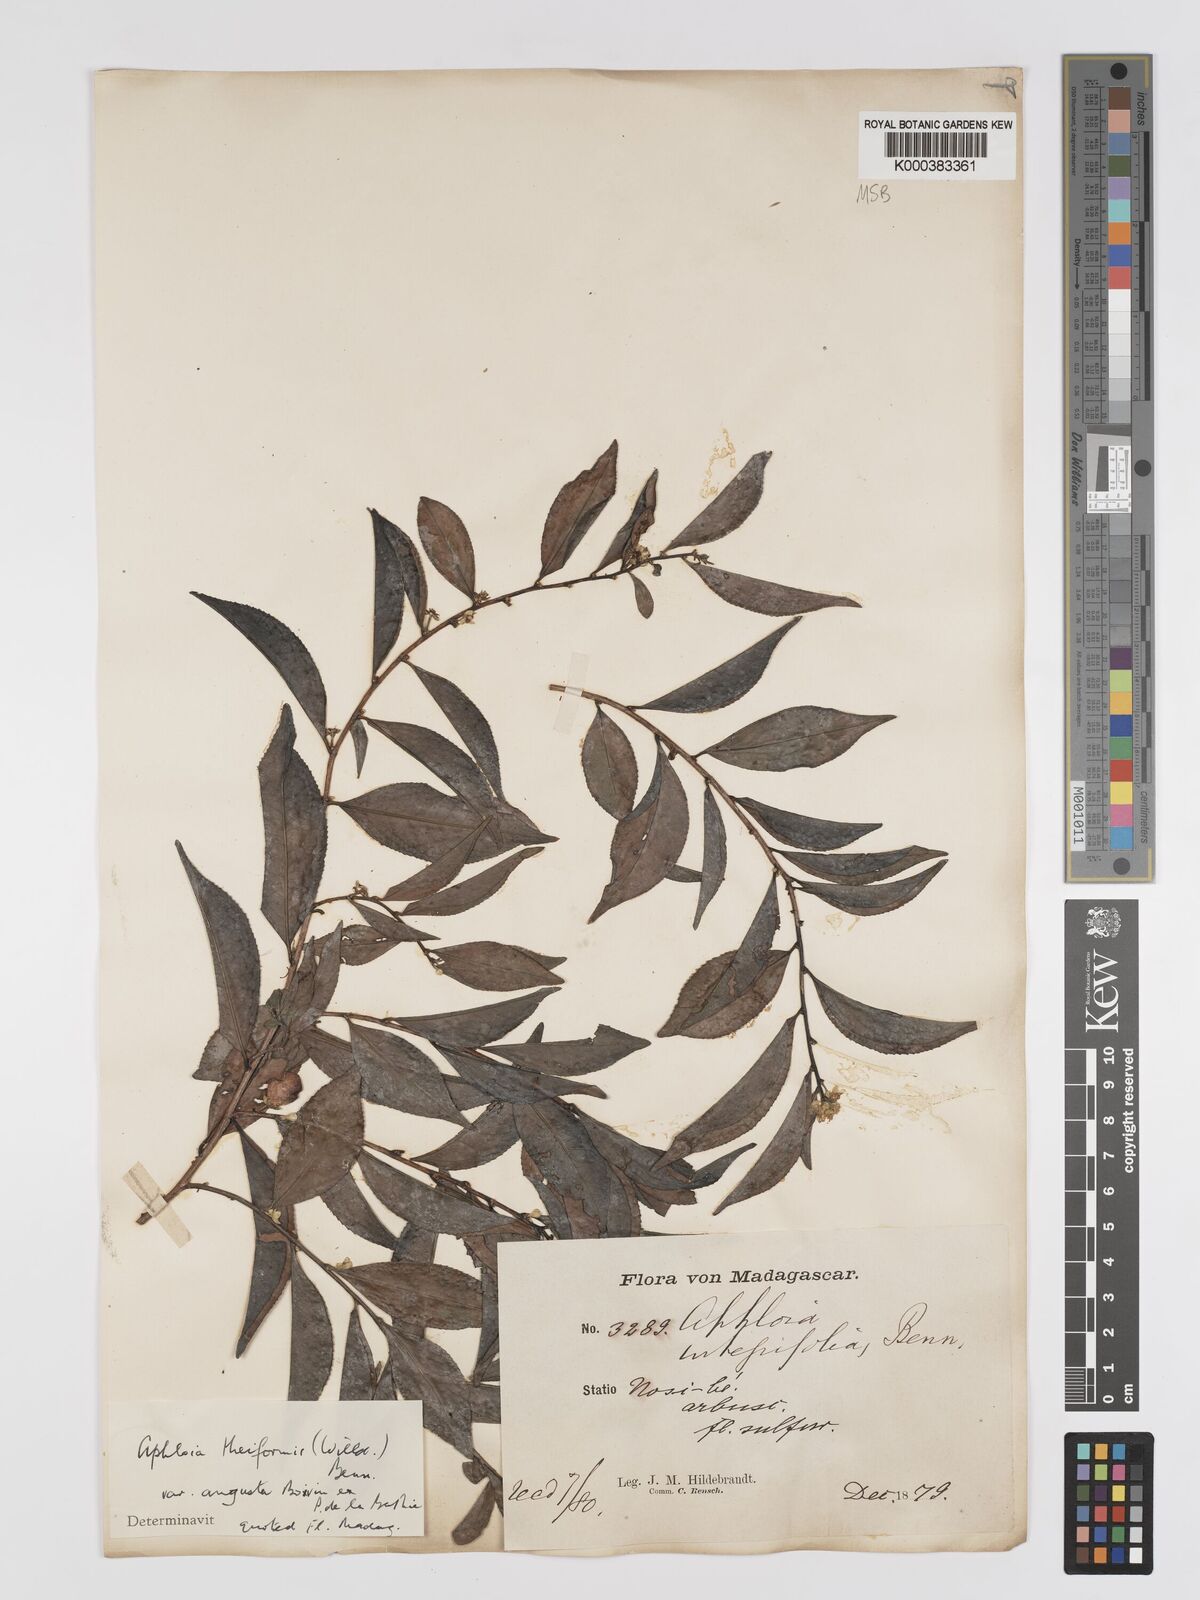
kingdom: Plantae
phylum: Tracheophyta
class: Magnoliopsida
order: Crossosomatales
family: Aphloiaceae
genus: Aphloia
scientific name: Aphloia theiformis
